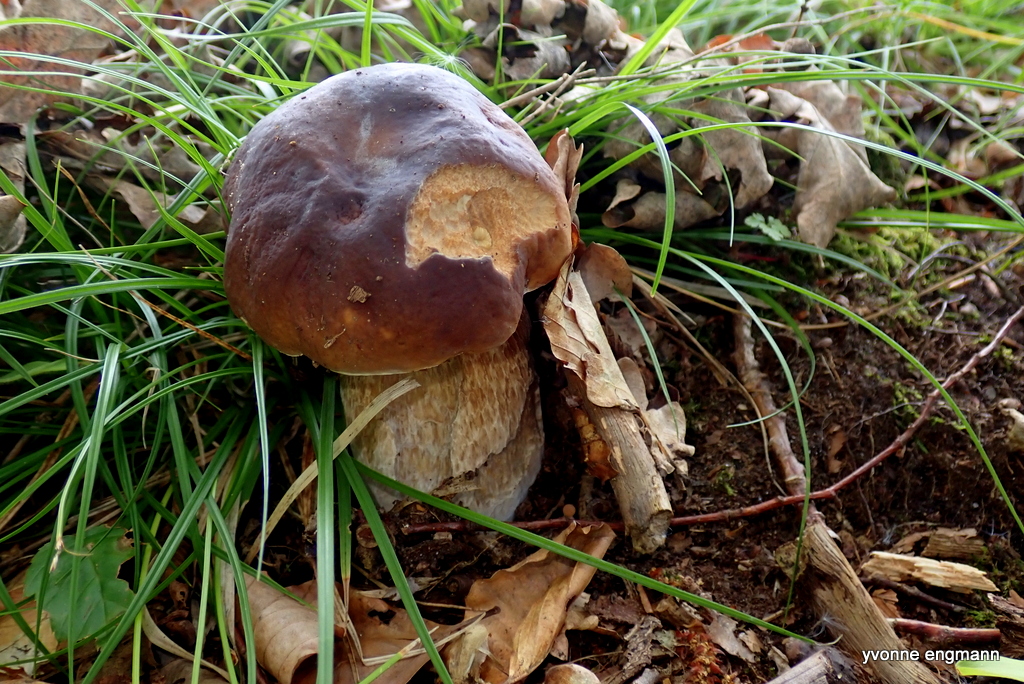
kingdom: Fungi
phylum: Basidiomycota
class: Agaricomycetes
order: Boletales
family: Boletaceae
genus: Boletus
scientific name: Boletus edulis
